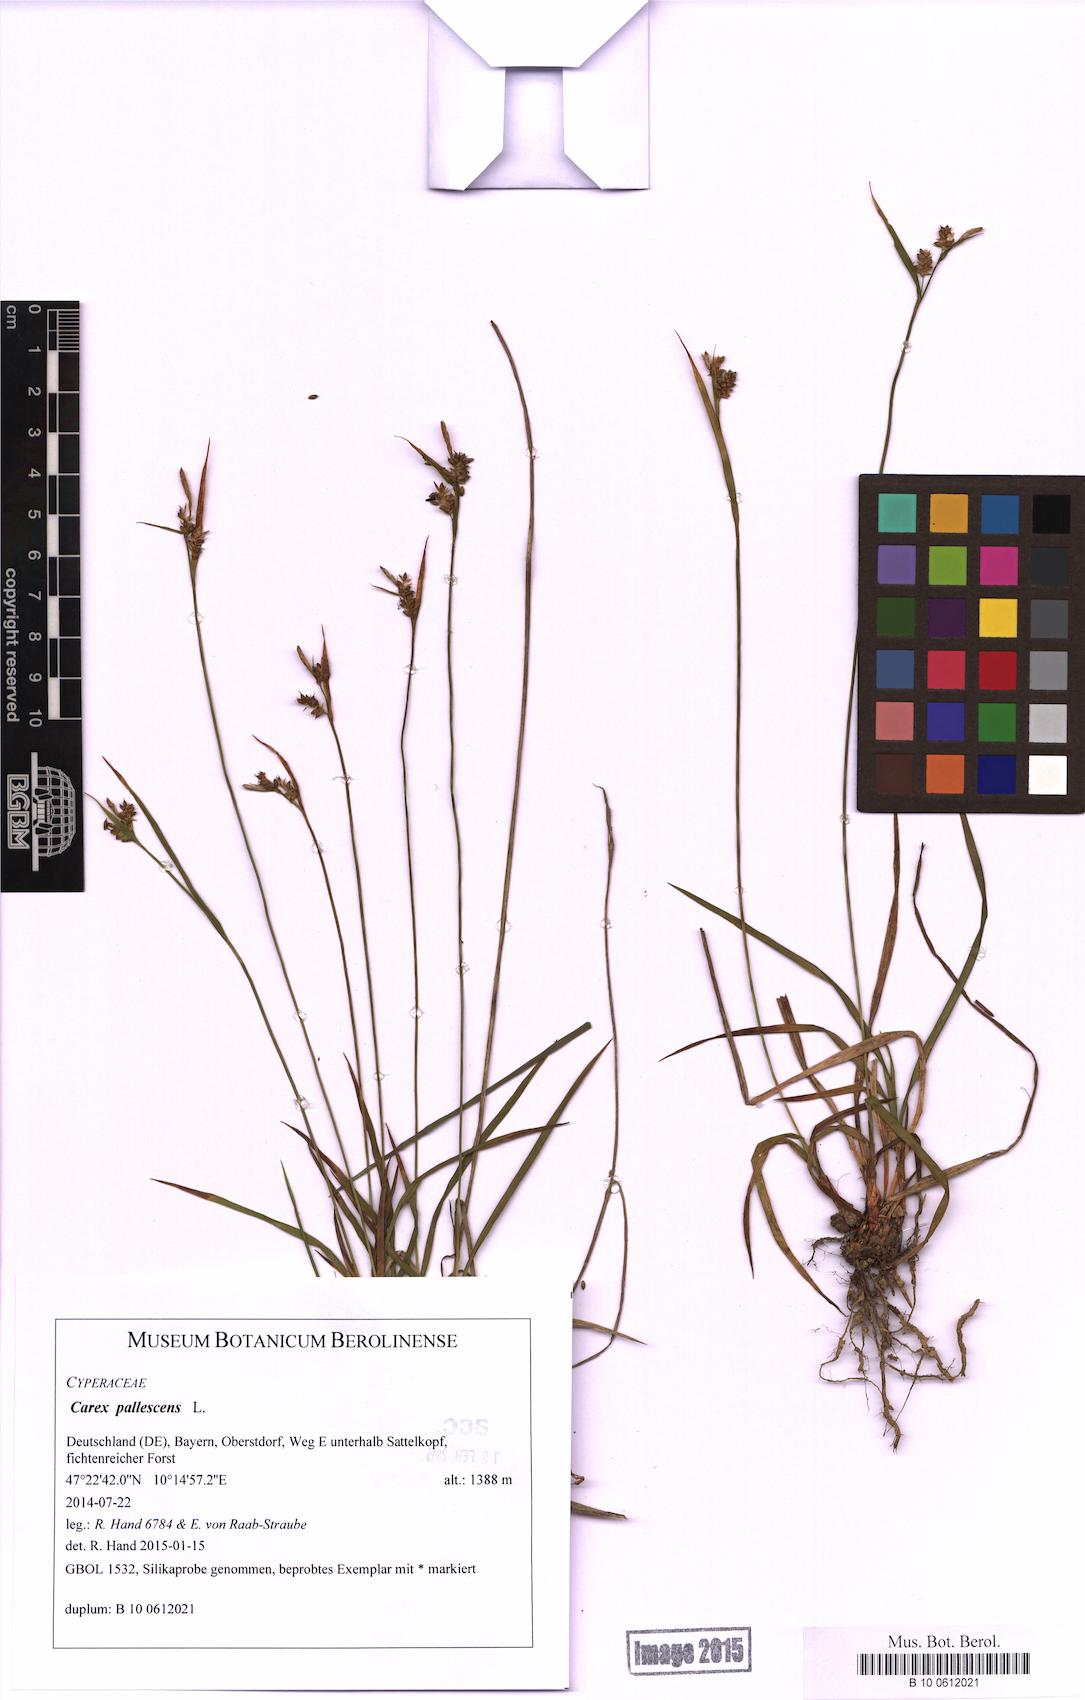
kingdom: Plantae
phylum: Tracheophyta
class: Liliopsida
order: Poales
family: Cyperaceae
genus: Carex
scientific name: Carex pallescens
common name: Pale sedge
